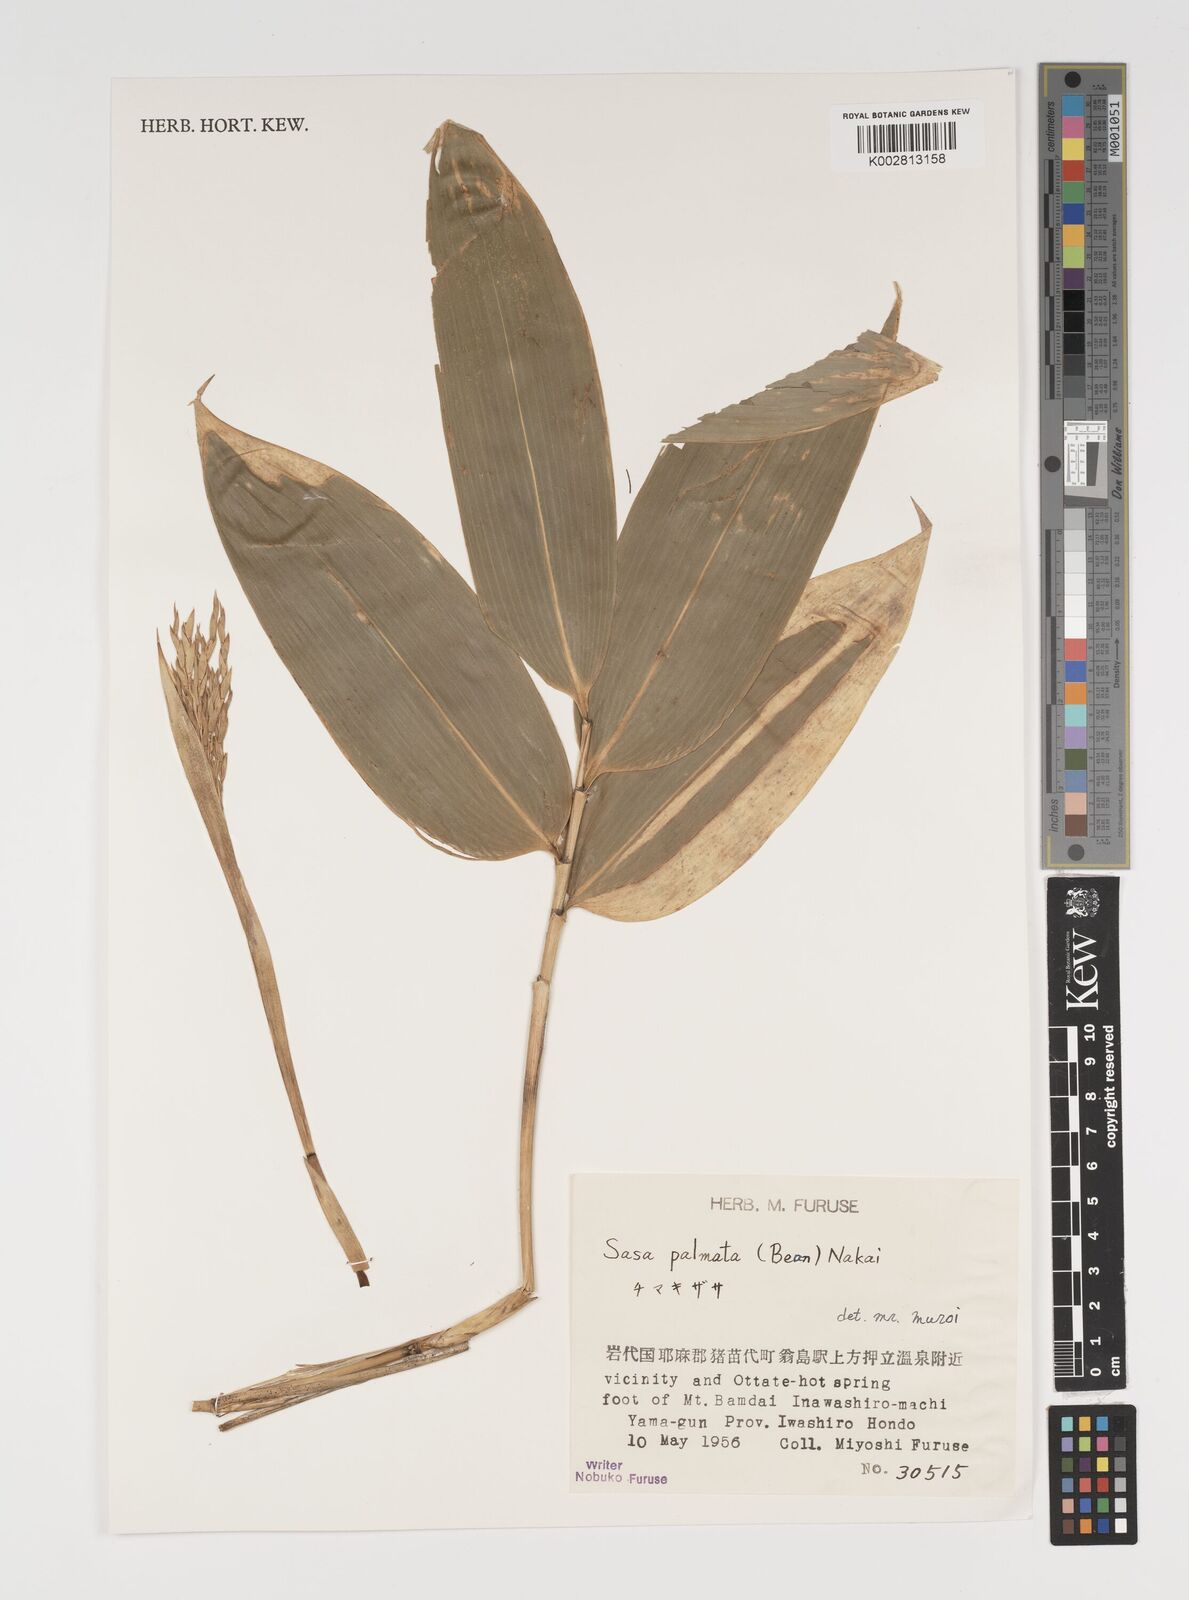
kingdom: Plantae
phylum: Tracheophyta
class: Liliopsida
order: Poales
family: Poaceae
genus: Sasa
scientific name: Sasa palmata
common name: Broad-leaved bamboo
